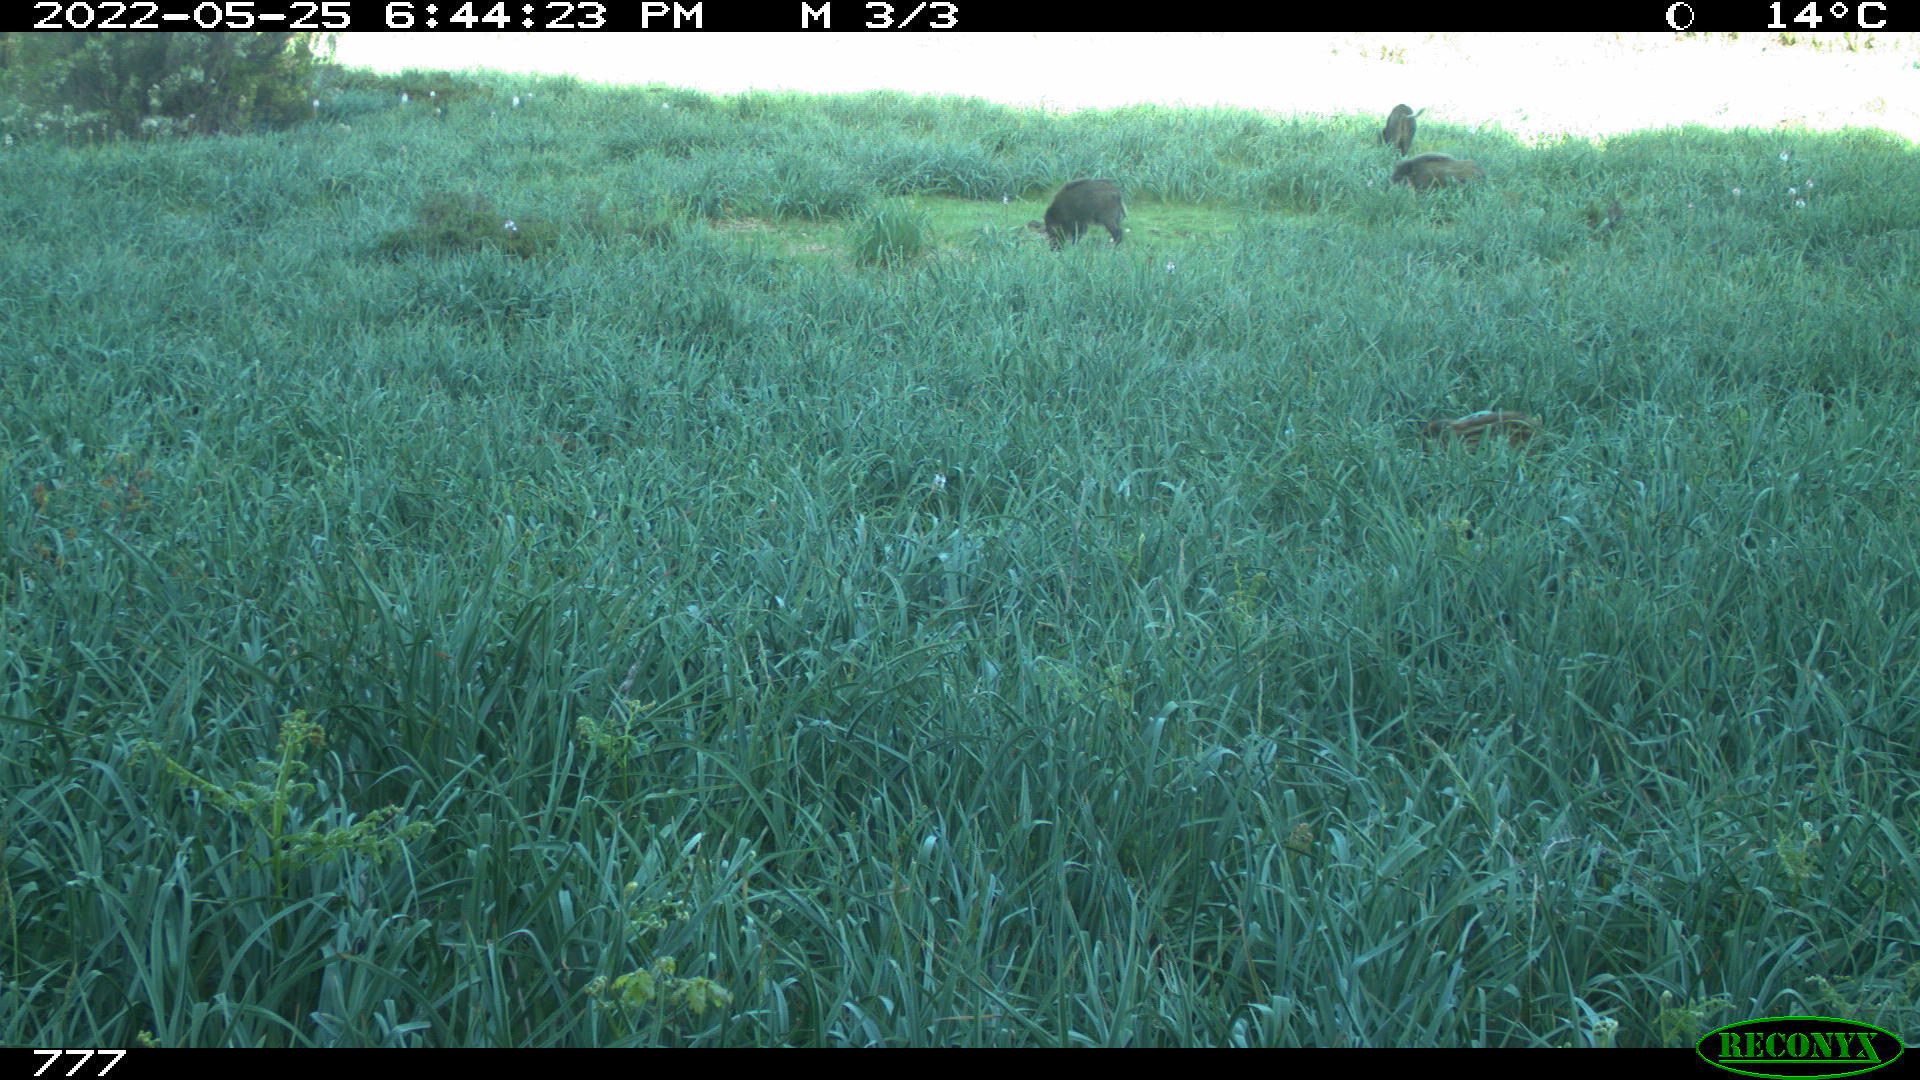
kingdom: Animalia
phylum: Chordata
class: Mammalia
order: Artiodactyla
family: Suidae
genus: Sus
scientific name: Sus scrofa
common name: Wild boar
